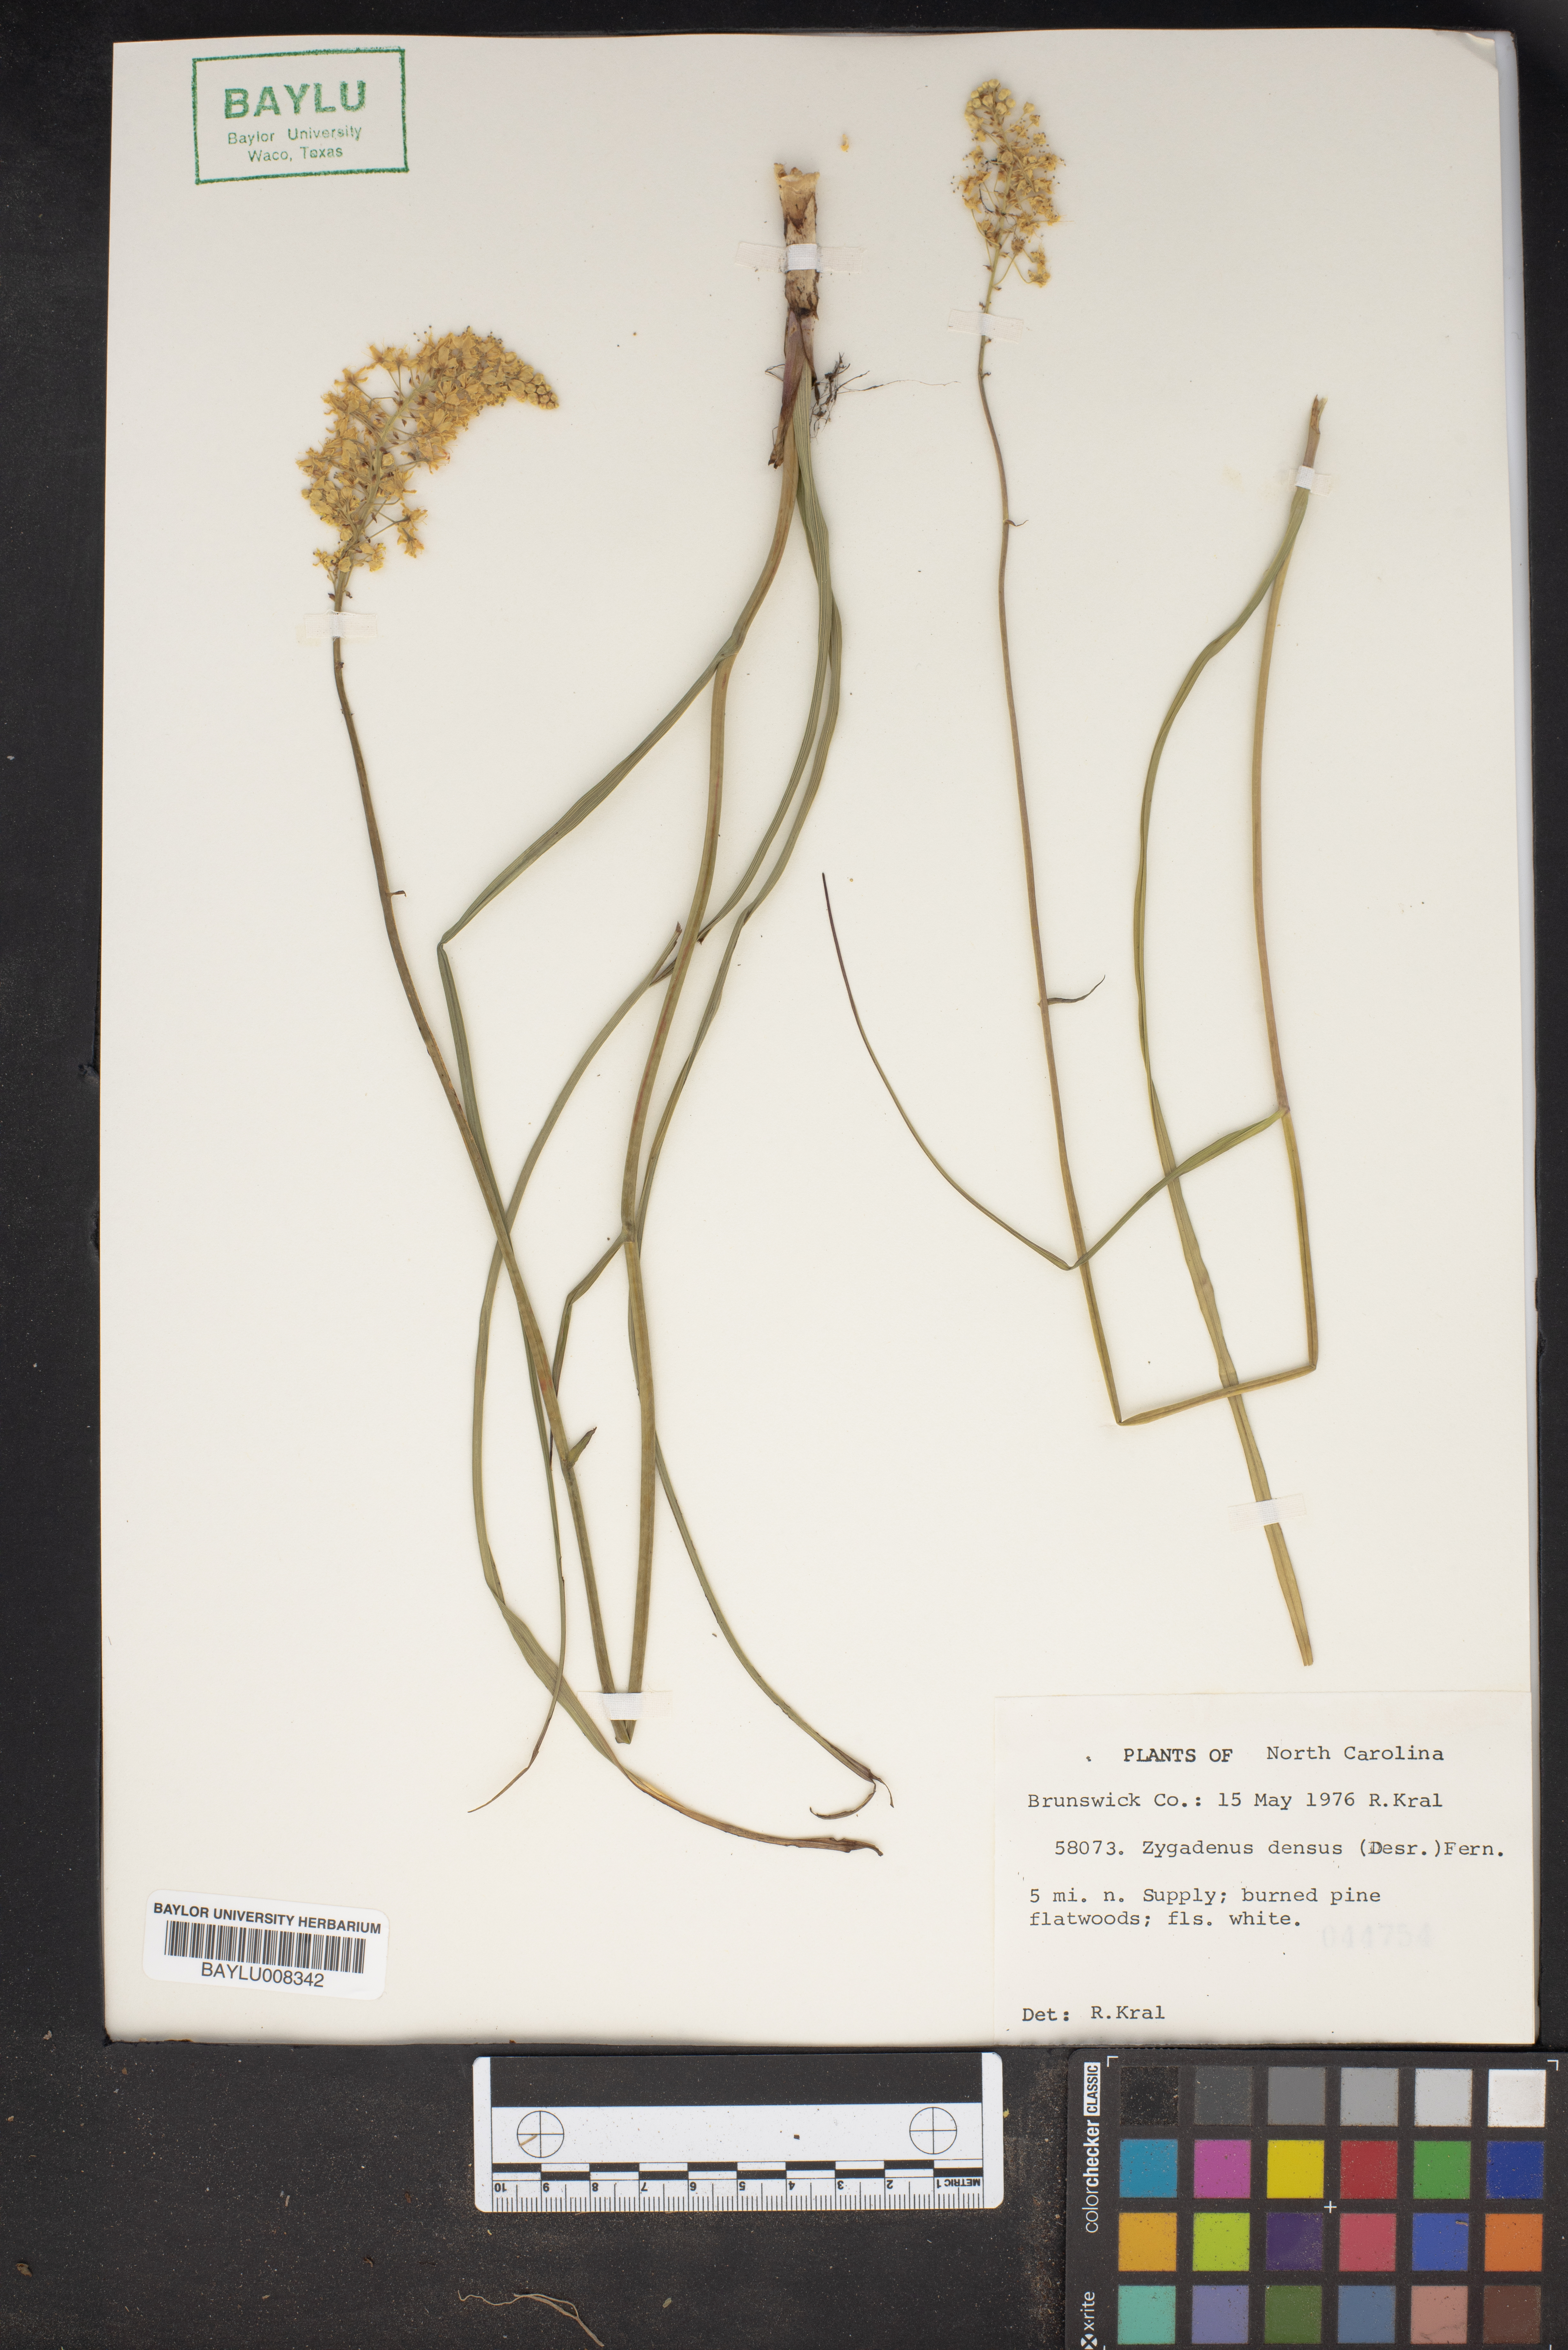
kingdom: Plantae
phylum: Tracheophyta
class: Liliopsida
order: Liliales
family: Melanthiaceae
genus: Stenanthium
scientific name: Stenanthium densum
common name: Crow-poison
